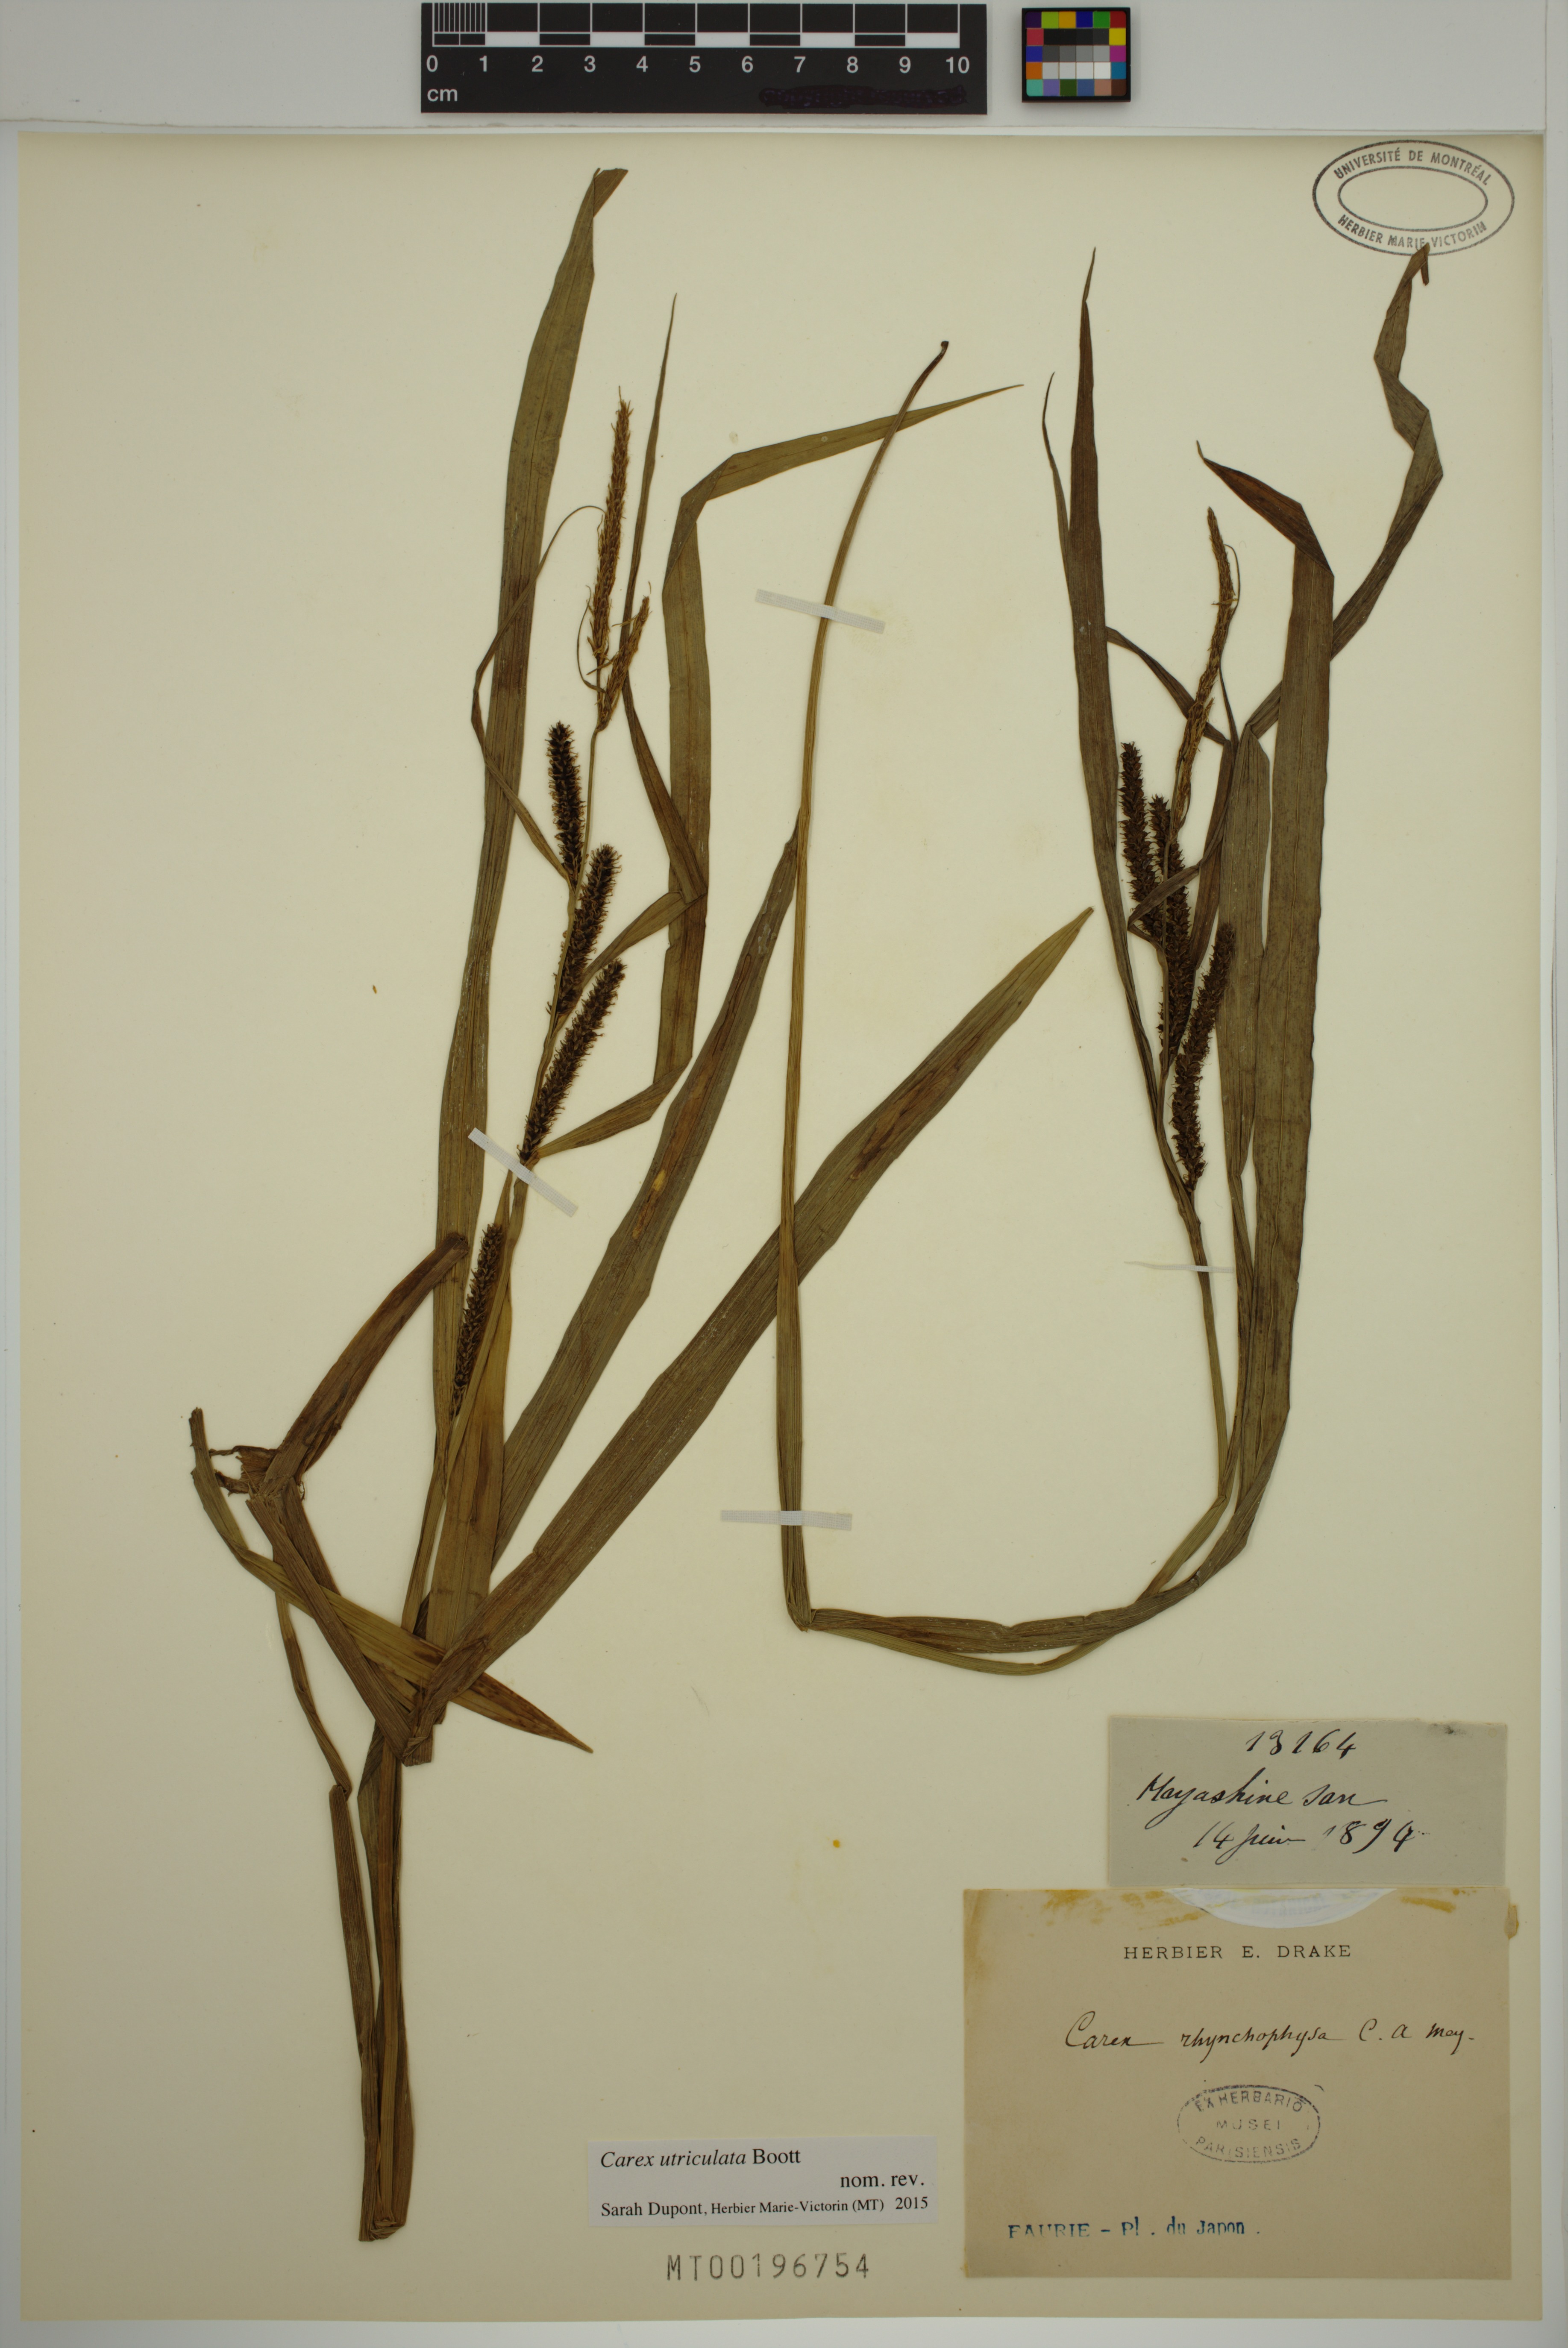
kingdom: Plantae
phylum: Tracheophyta
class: Liliopsida
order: Poales
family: Cyperaceae
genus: Carex
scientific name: Carex utriculata
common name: Beaked sedge
